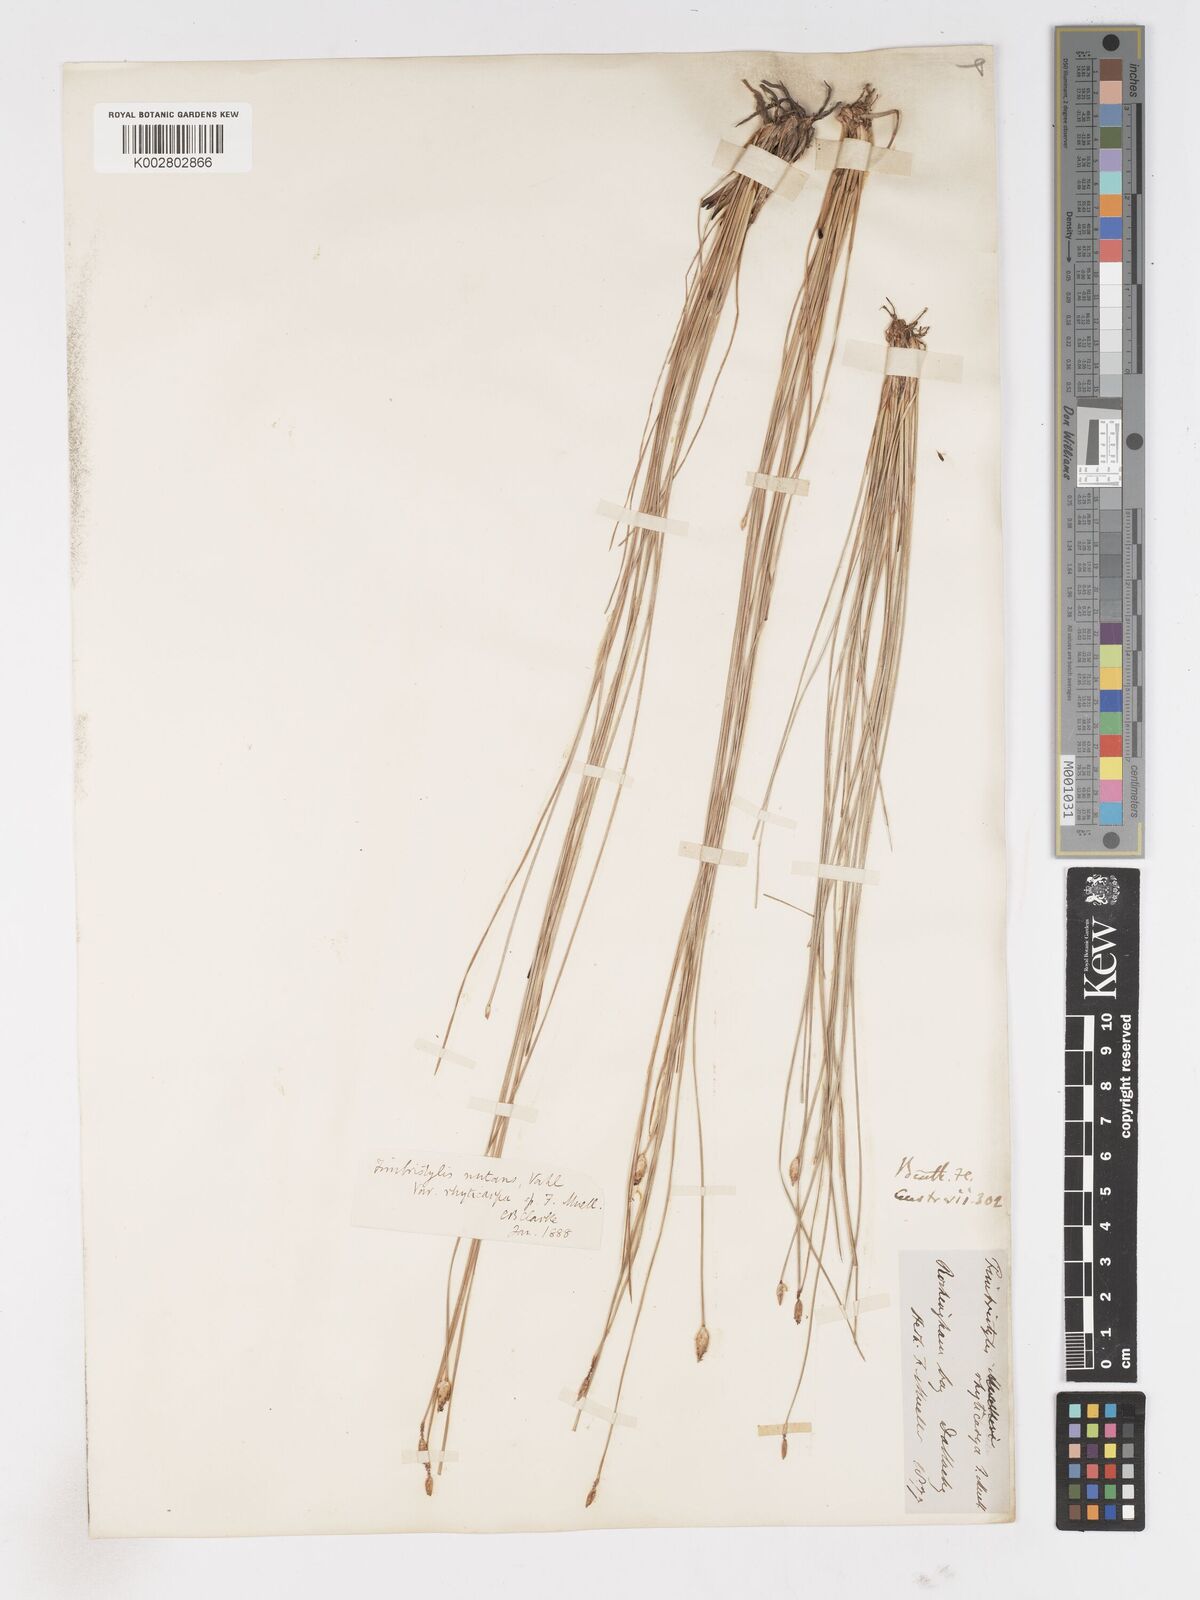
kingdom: Plantae
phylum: Tracheophyta
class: Liliopsida
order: Poales
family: Cyperaceae
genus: Fimbristylis
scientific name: Fimbristylis rhyticarya
